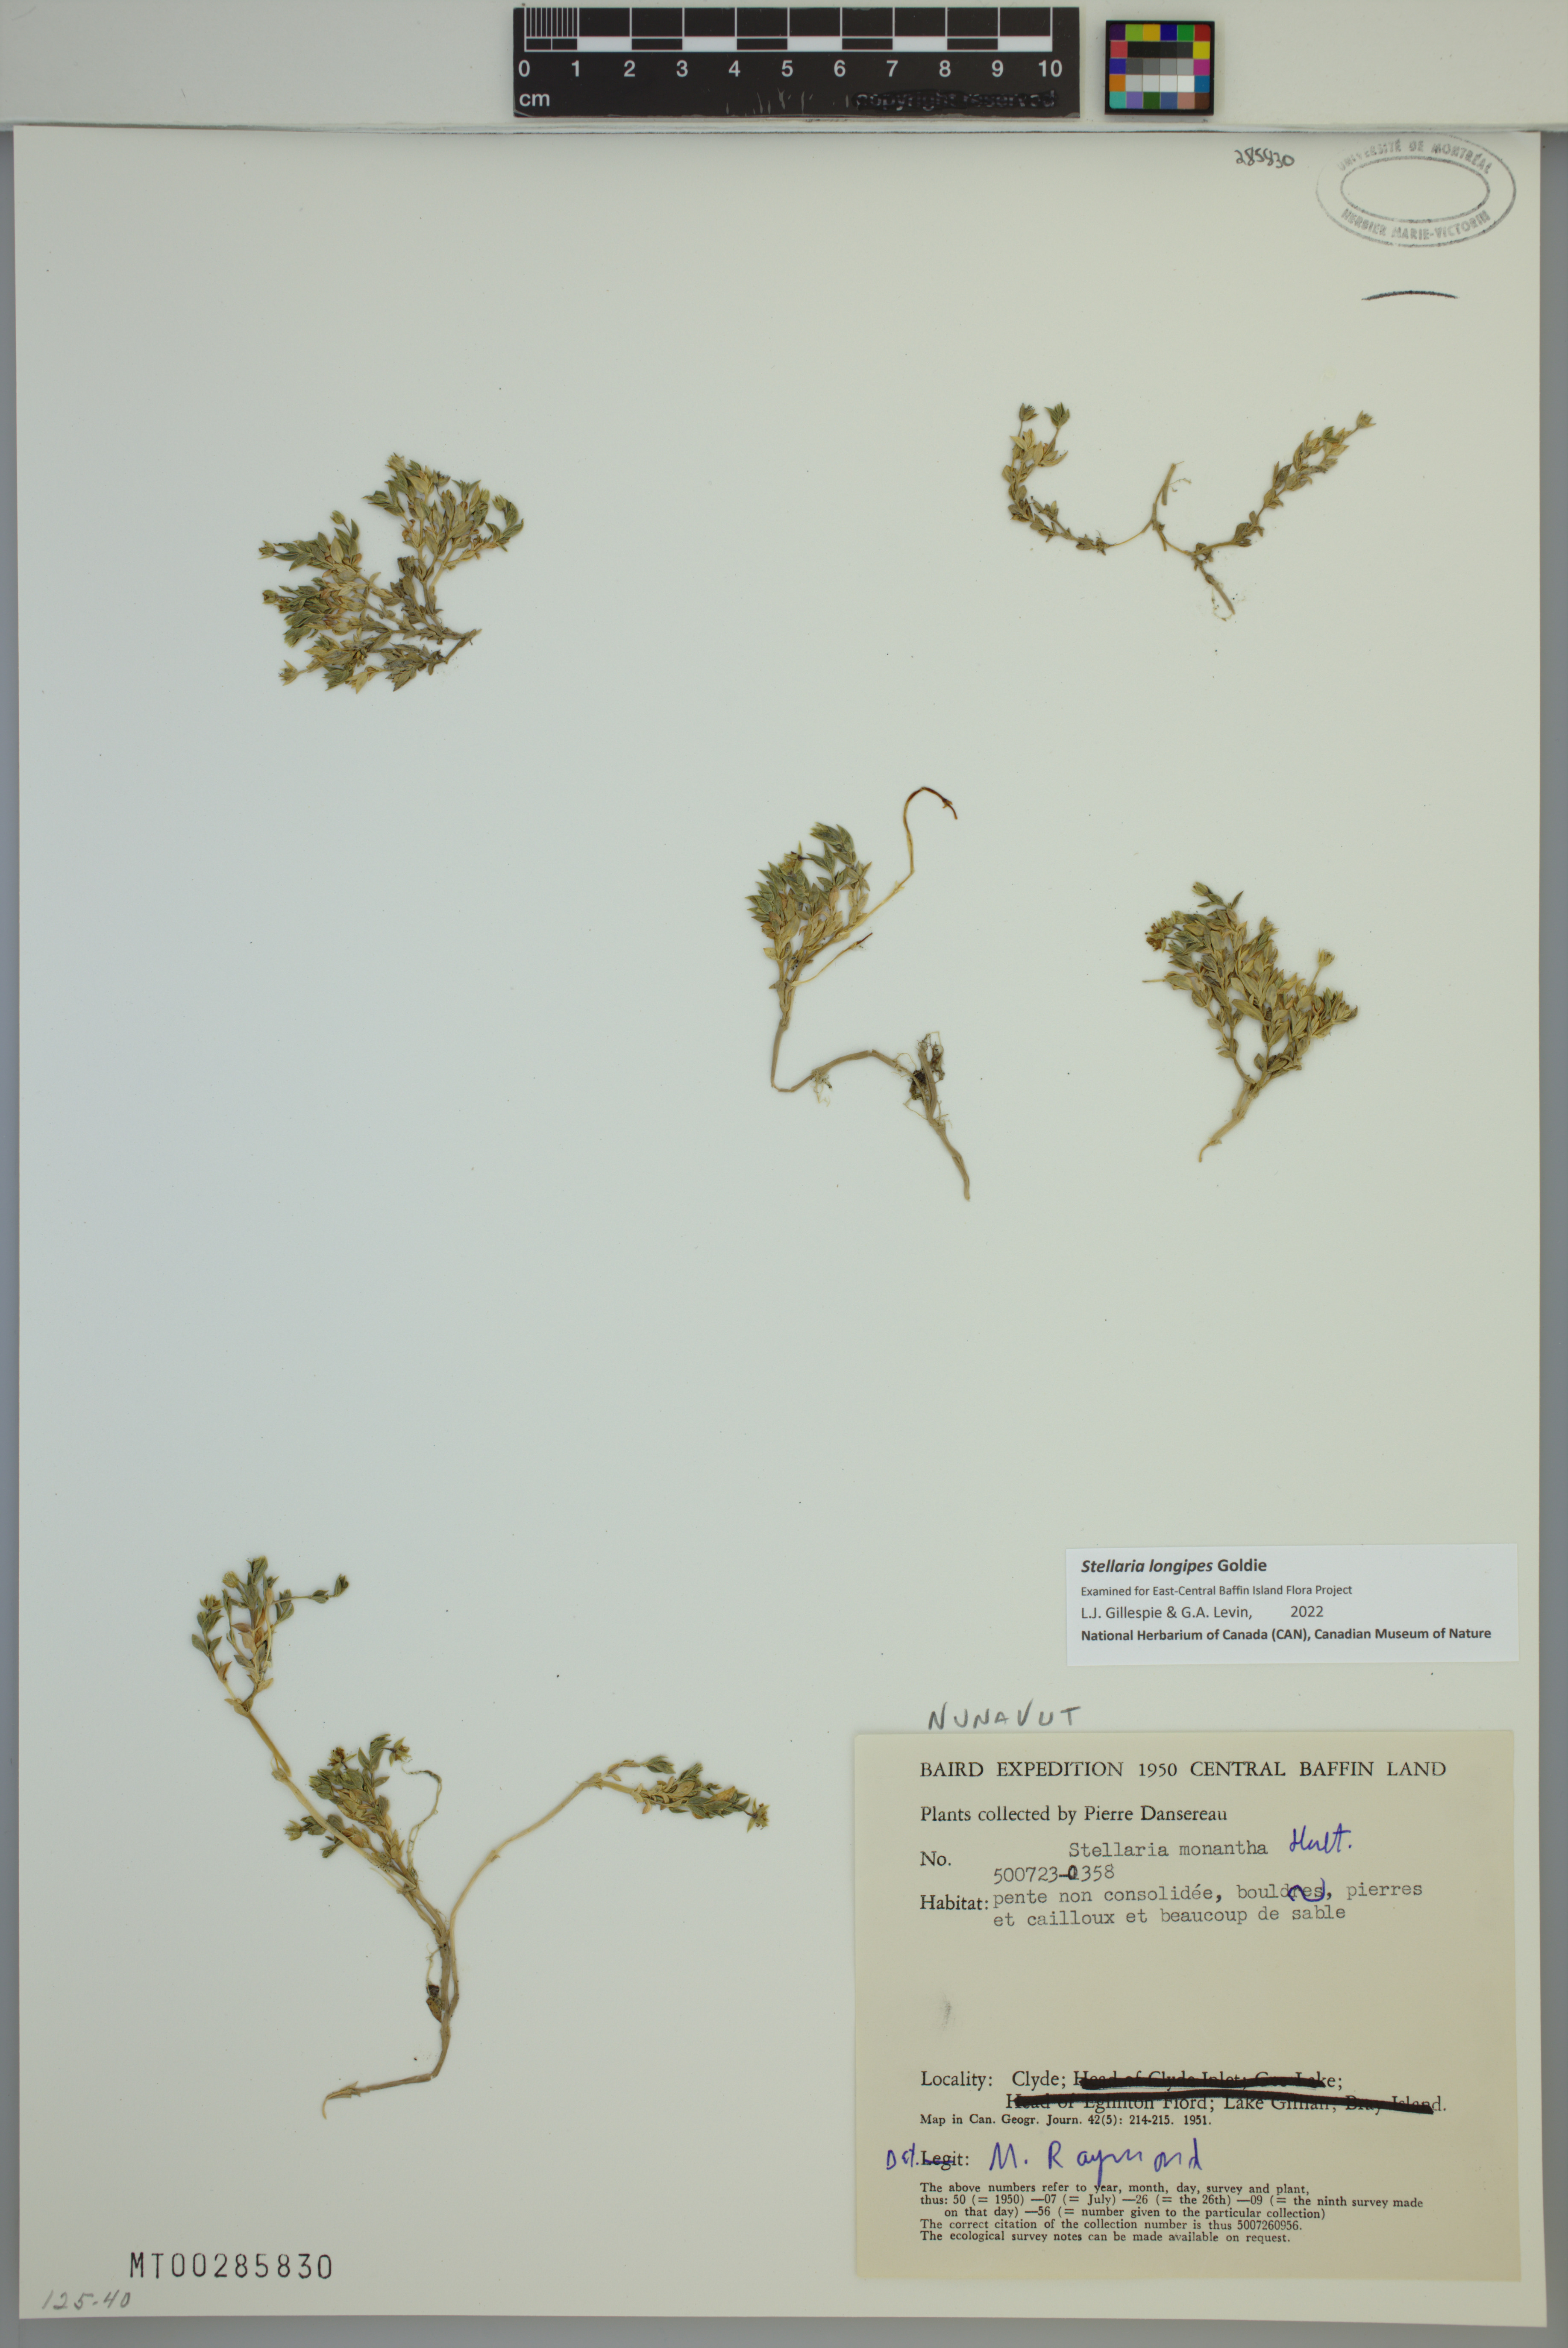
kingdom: Plantae
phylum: Tracheophyta
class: Magnoliopsida
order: Caryophyllales
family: Caryophyllaceae
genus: Stellaria
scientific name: Stellaria longipes
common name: Goldie's starwort
